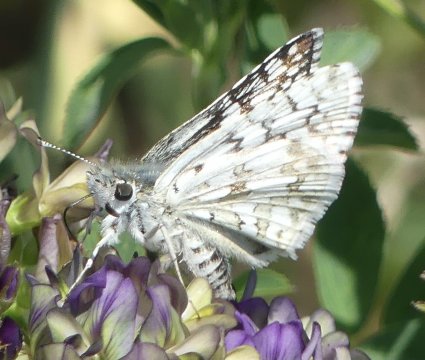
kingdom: Animalia
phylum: Arthropoda
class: Insecta
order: Lepidoptera
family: Hesperiidae
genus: Burnsius
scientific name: Burnsius communis
